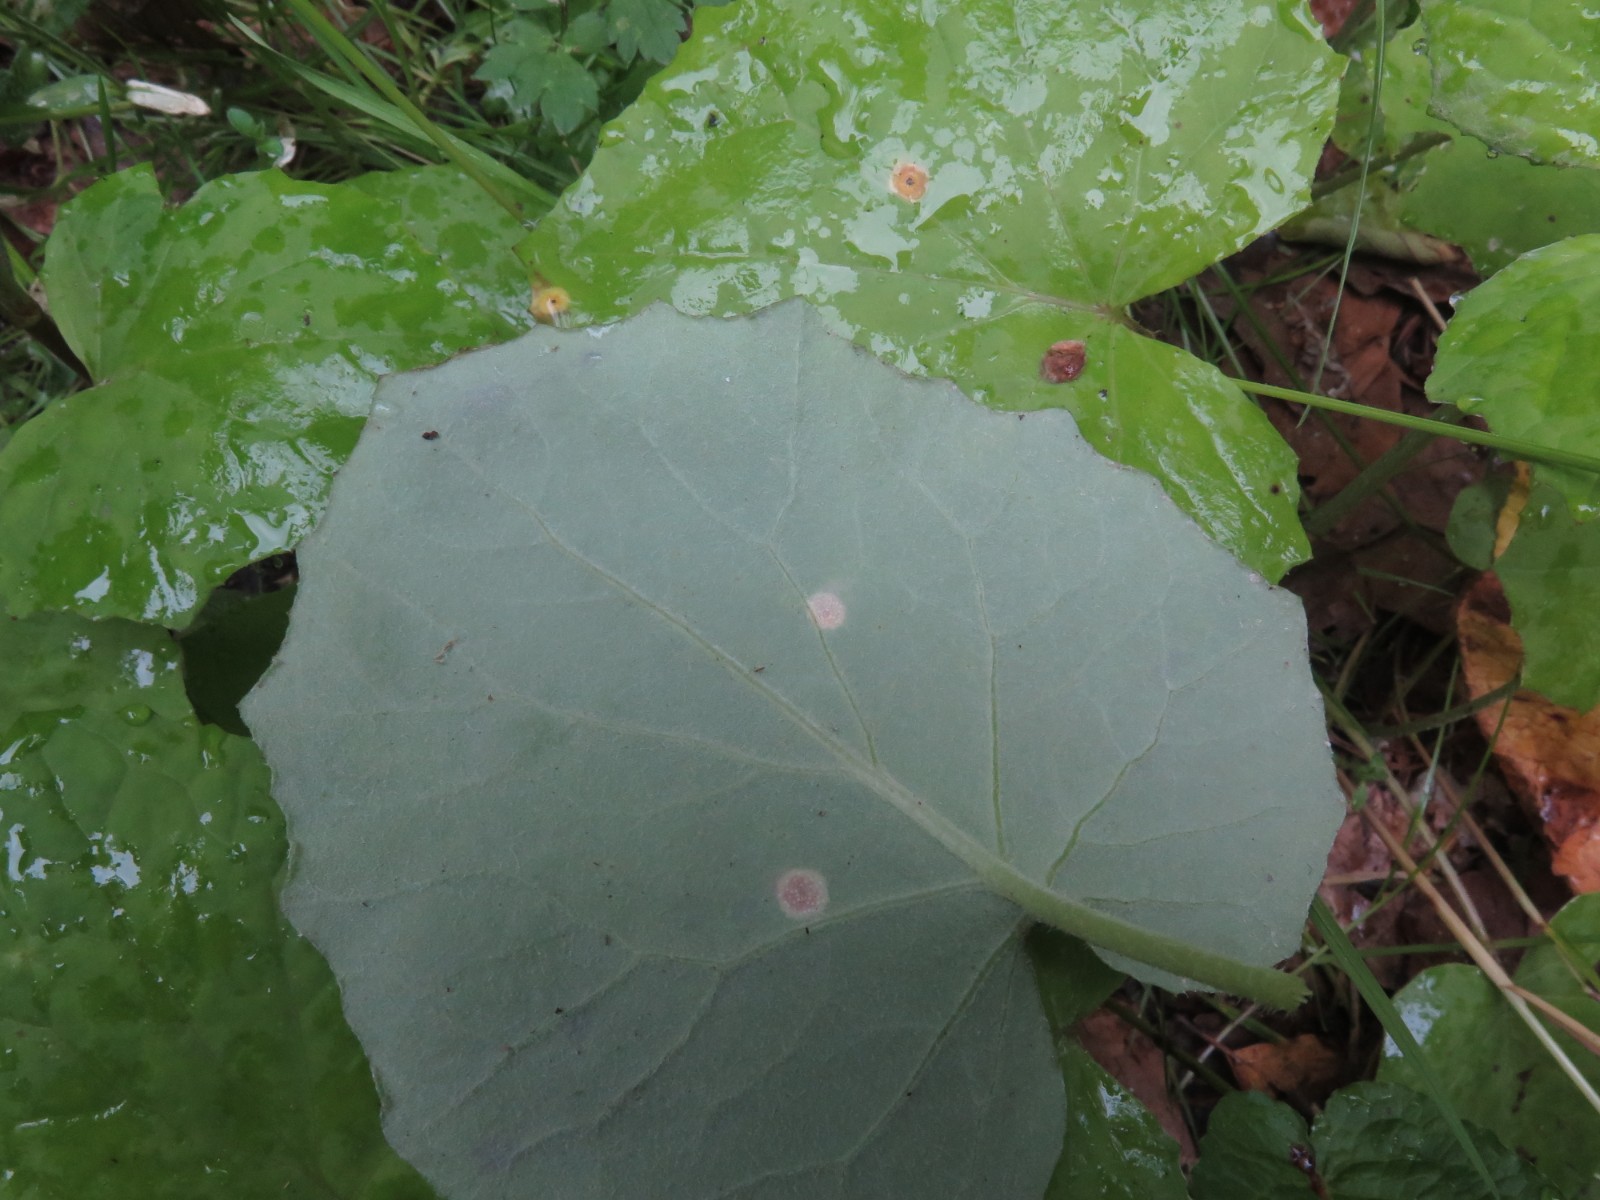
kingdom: Fungi
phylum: Basidiomycota
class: Pucciniomycetes
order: Pucciniales
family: Pucciniaceae
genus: Puccinia
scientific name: Puccinia poarum
